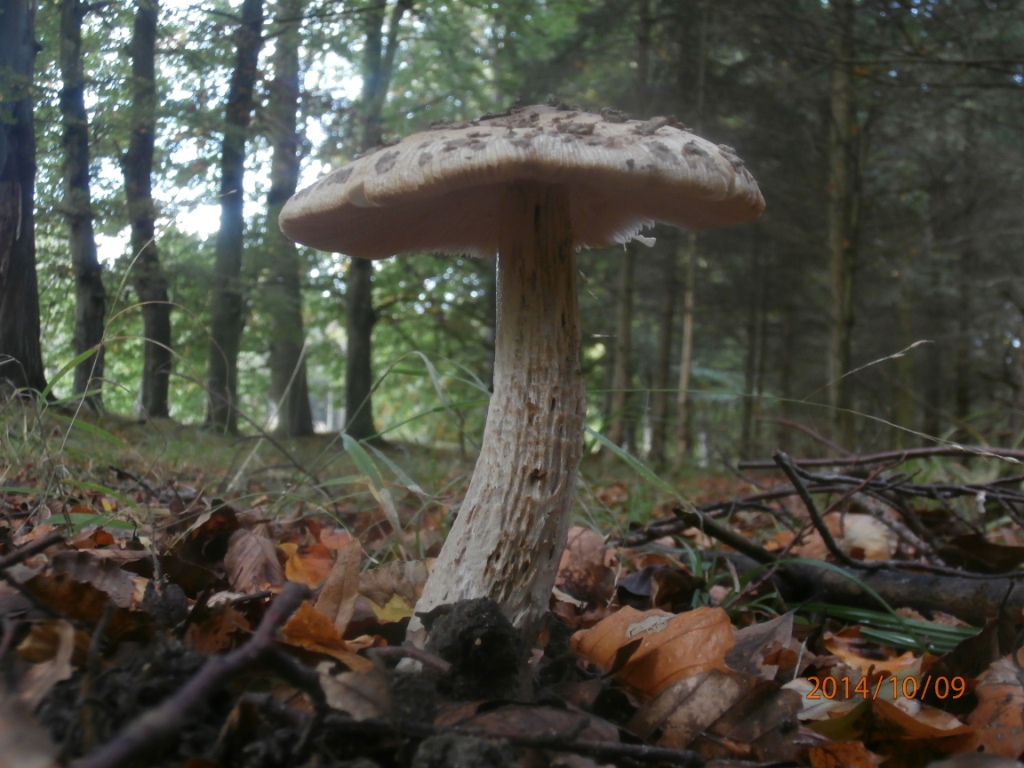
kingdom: Fungi
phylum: Basidiomycota
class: Agaricomycetes
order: Agaricales
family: Amanitaceae
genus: Amanita
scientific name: Amanita ceciliae
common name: stor kam-fluesvamp
